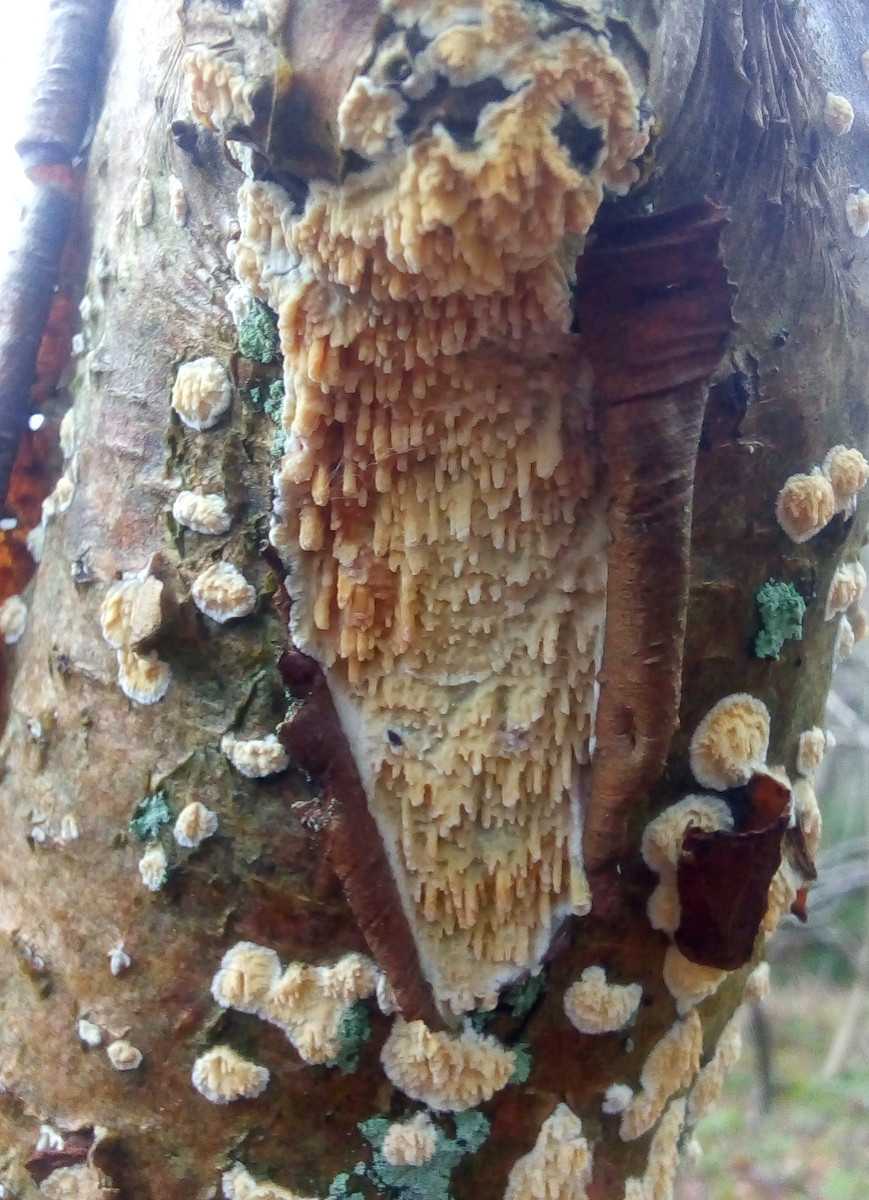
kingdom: Fungi
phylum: Basidiomycota
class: Agaricomycetes
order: Hymenochaetales
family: Schizoporaceae
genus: Xylodon
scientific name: Xylodon radula
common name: grovtandet kalkskind
